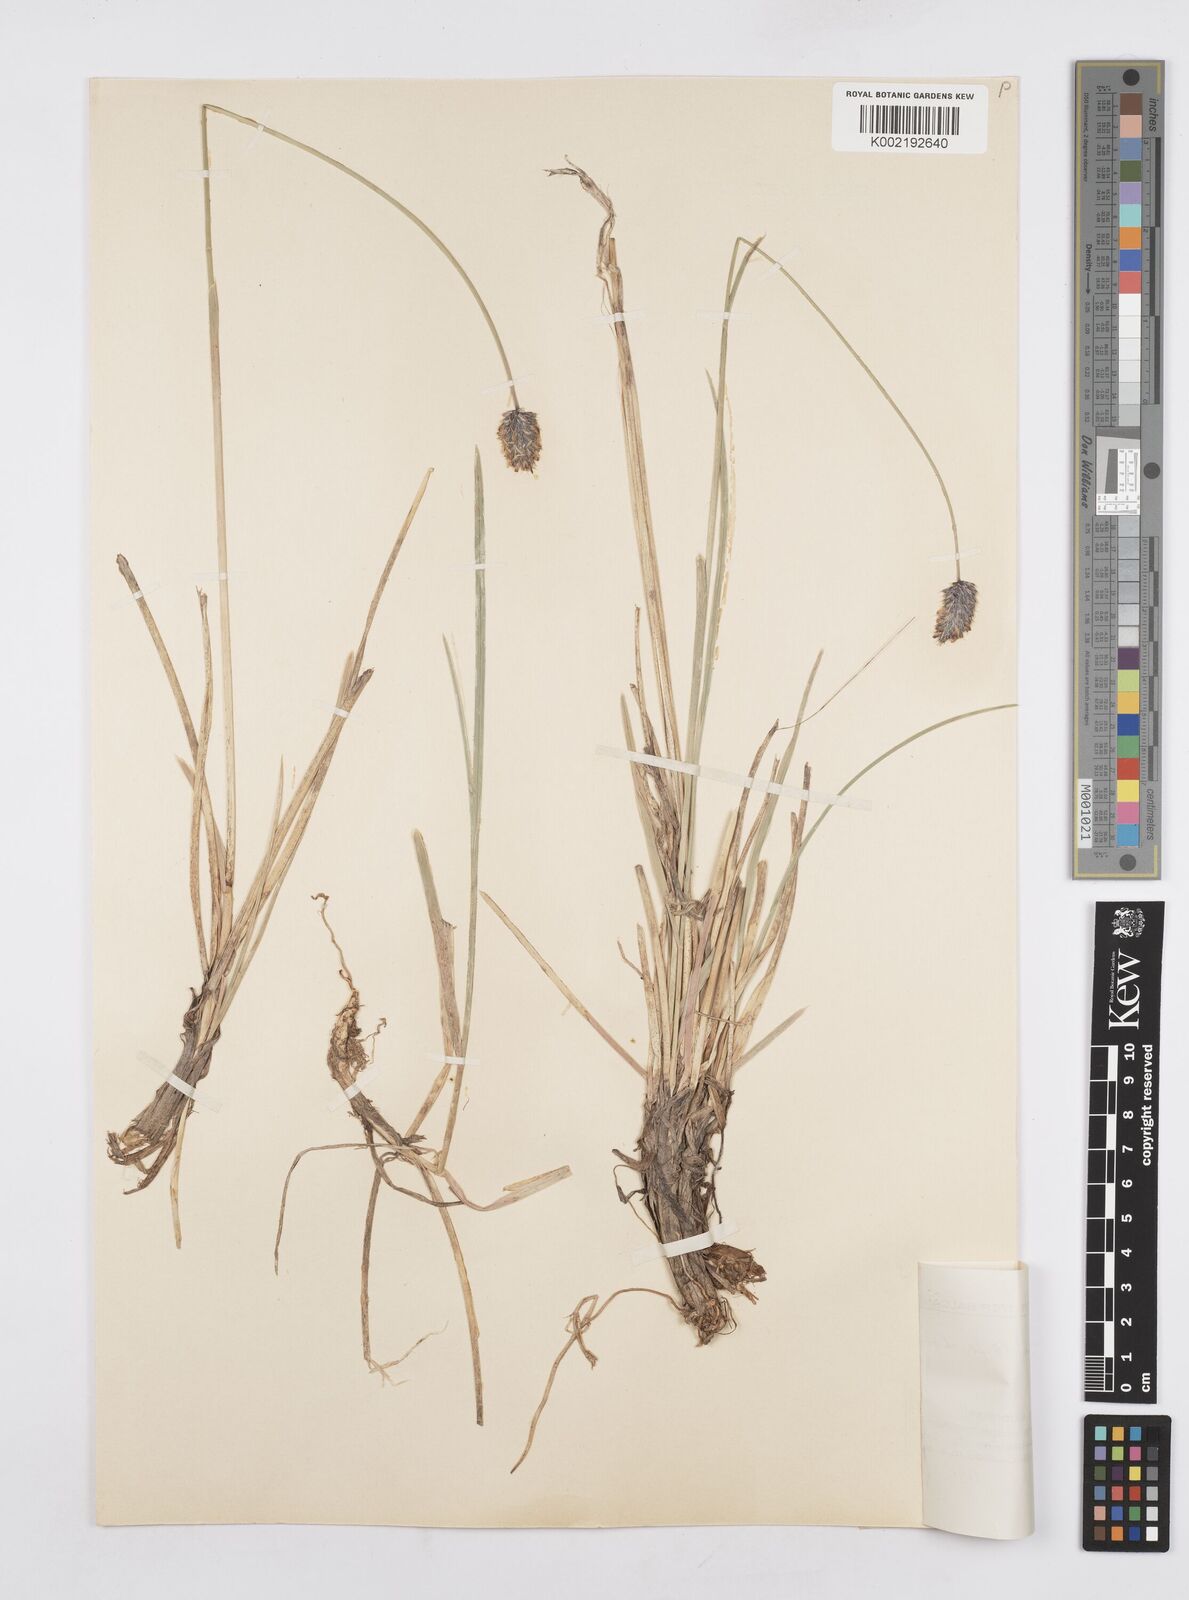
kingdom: Plantae
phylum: Tracheophyta
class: Liliopsida
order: Poales
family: Poaceae
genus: Sesleria
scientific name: Sesleria wettsteinii
